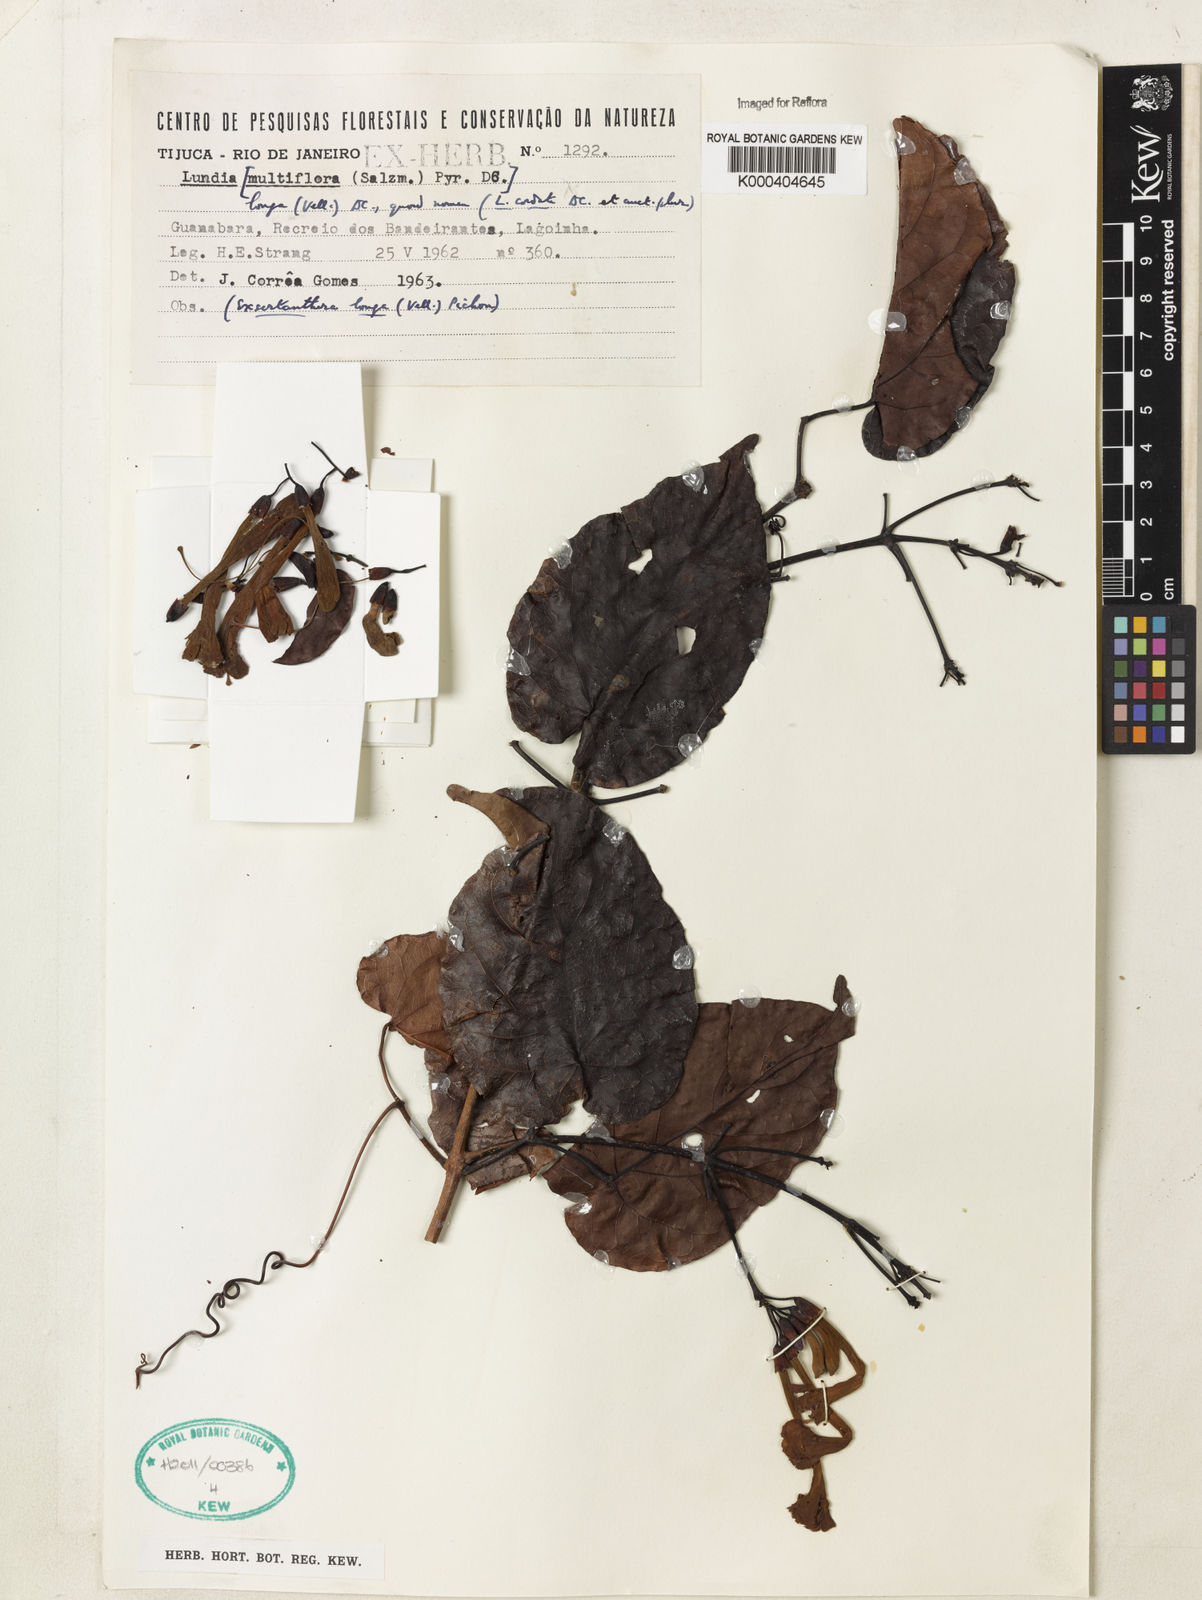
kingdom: Plantae
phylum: Tracheophyta
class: Magnoliopsida
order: Lamiales
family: Bignoniaceae
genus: Lundia
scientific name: Lundia longa
